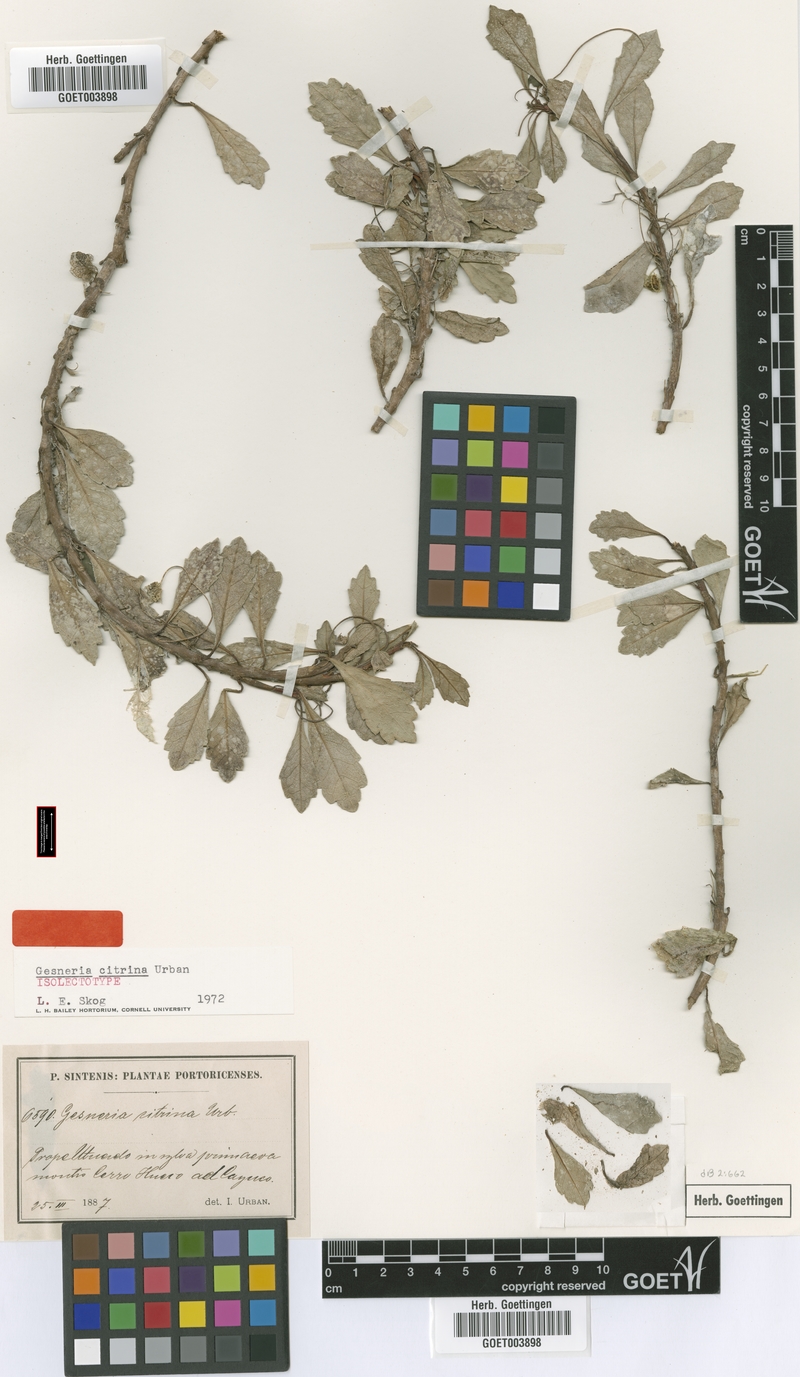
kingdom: Plantae
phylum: Tracheophyta
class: Magnoliopsida
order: Lamiales
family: Gesneriaceae
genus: Gesneria
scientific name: Gesneria citrina
